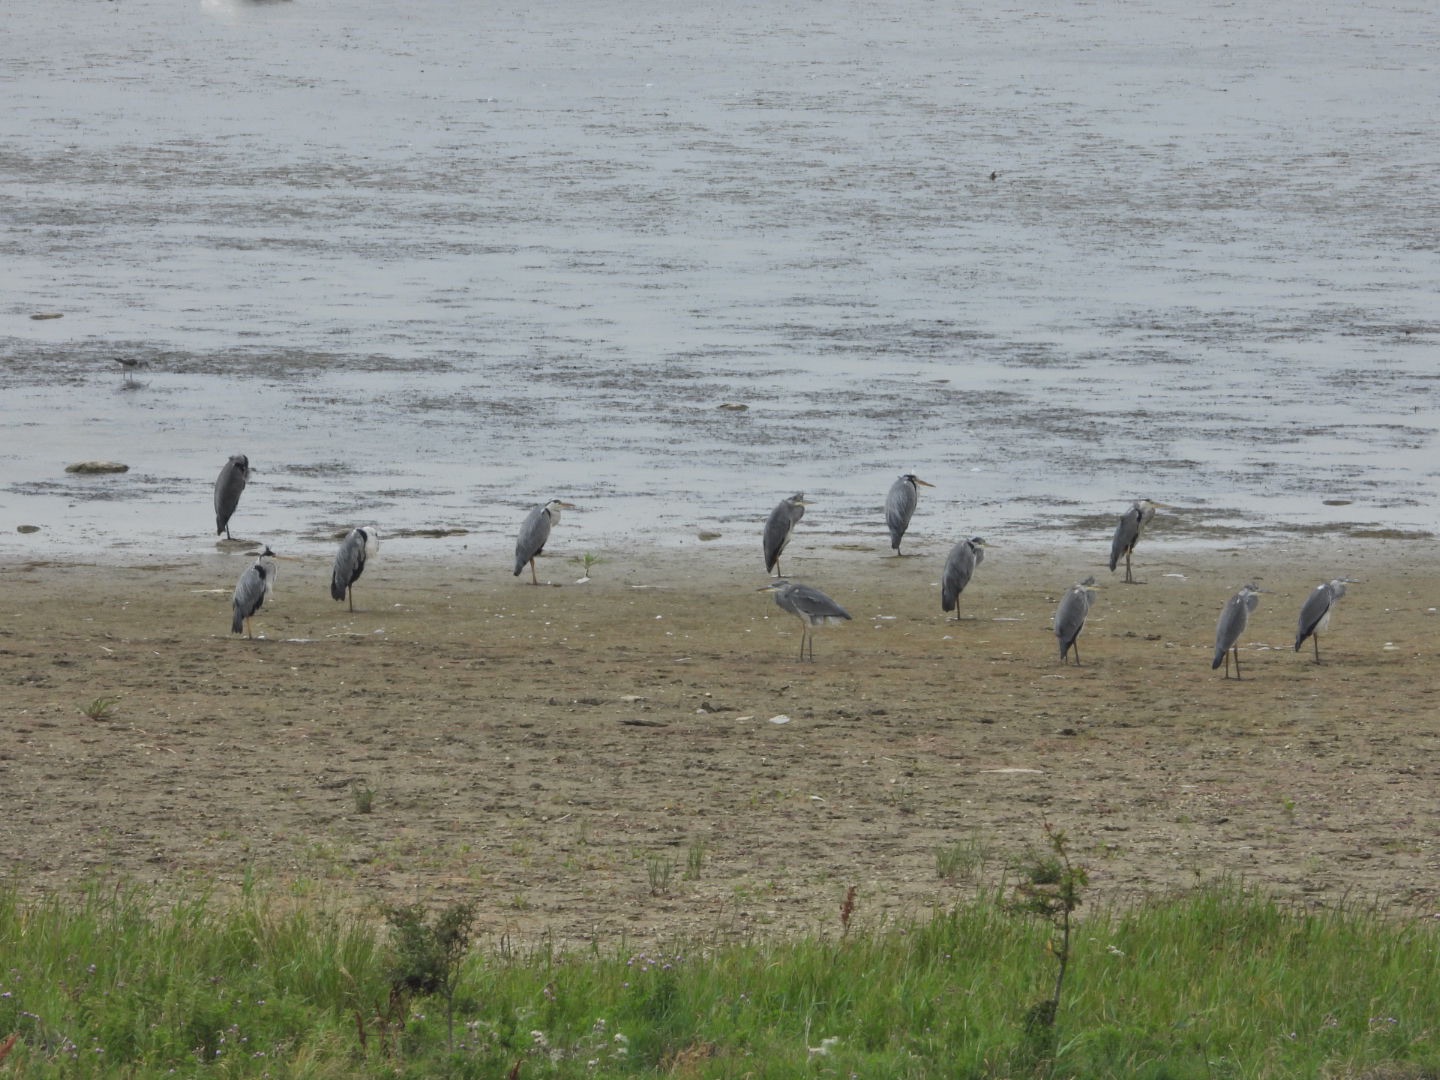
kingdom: Animalia
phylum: Chordata
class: Aves
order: Pelecaniformes
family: Ardeidae
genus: Ardea
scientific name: Ardea cinerea
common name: Fiskehejre
